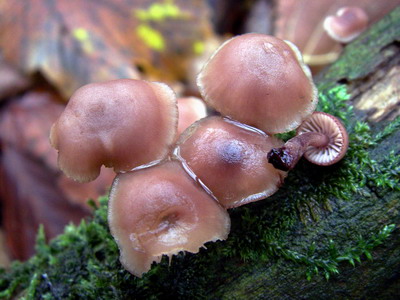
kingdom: Fungi
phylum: Basidiomycota
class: Agaricomycetes
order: Agaricales
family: Mycenaceae
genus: Mycena
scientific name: Mycena haematopus
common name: blødende huesvamp
